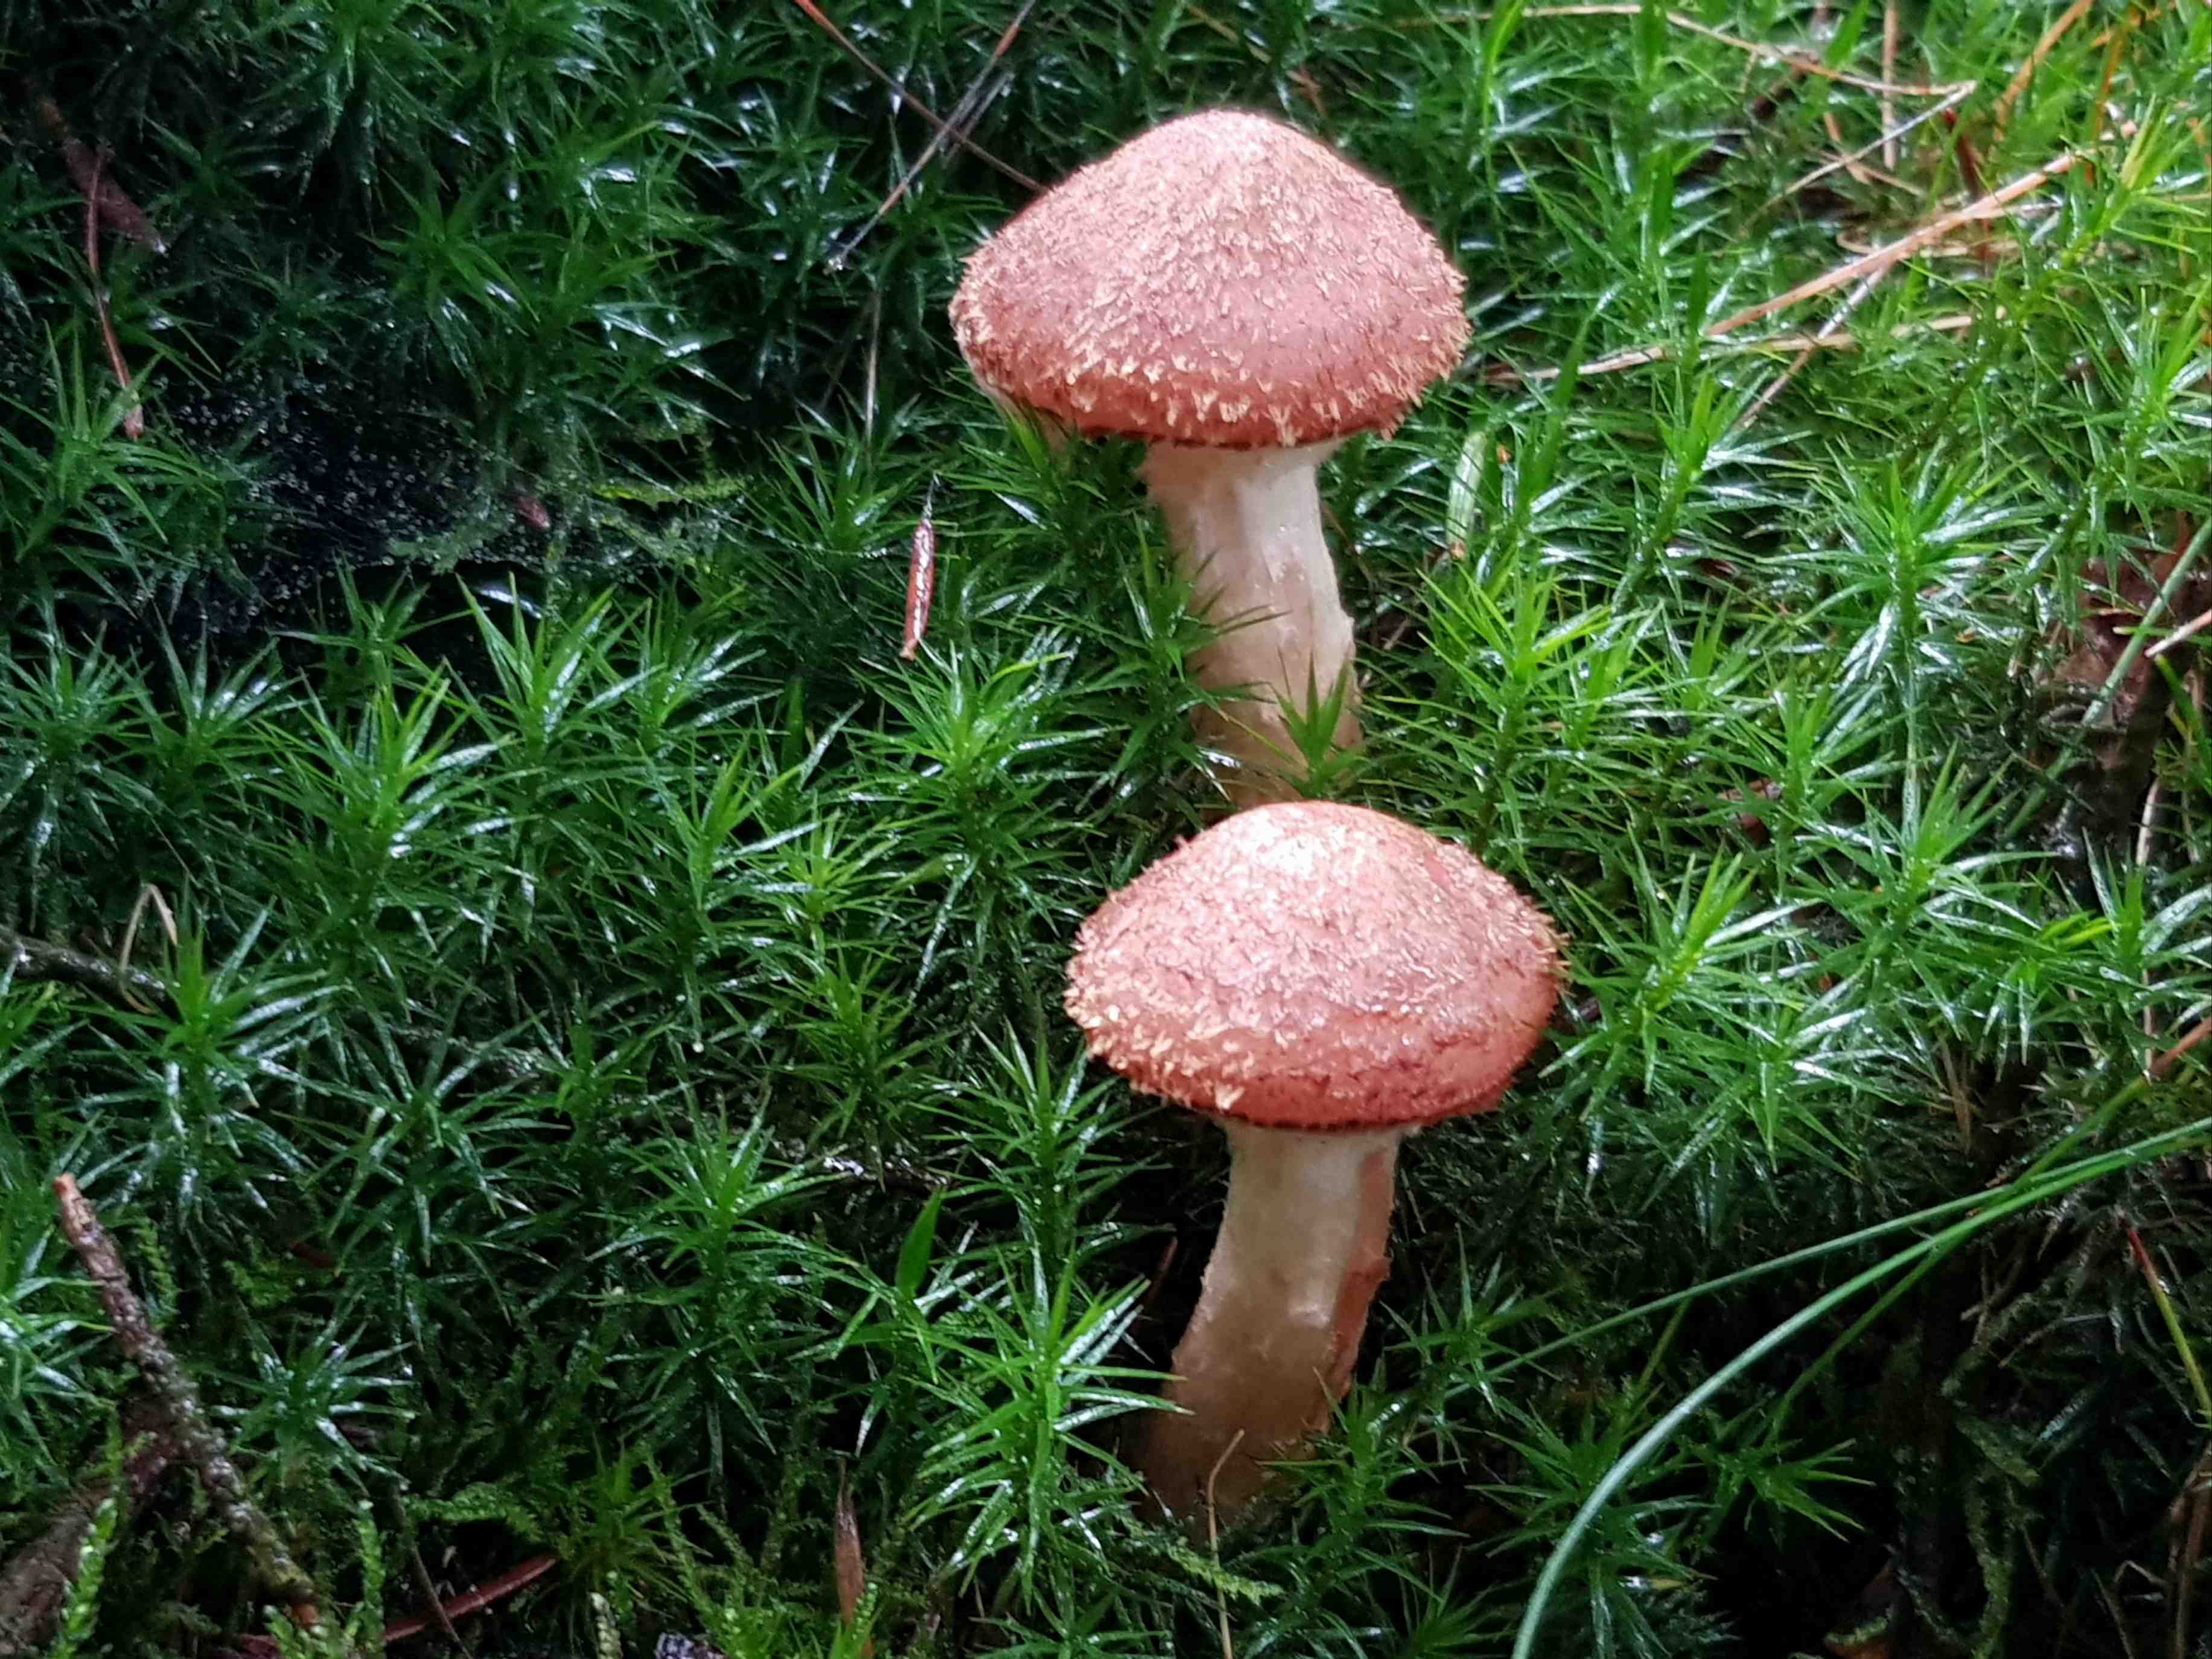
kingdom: Fungi
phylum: Basidiomycota
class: Agaricomycetes
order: Agaricales
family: Physalacriaceae
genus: Armillaria
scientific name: Armillaria ostoyae
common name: mørk honningsvamp
